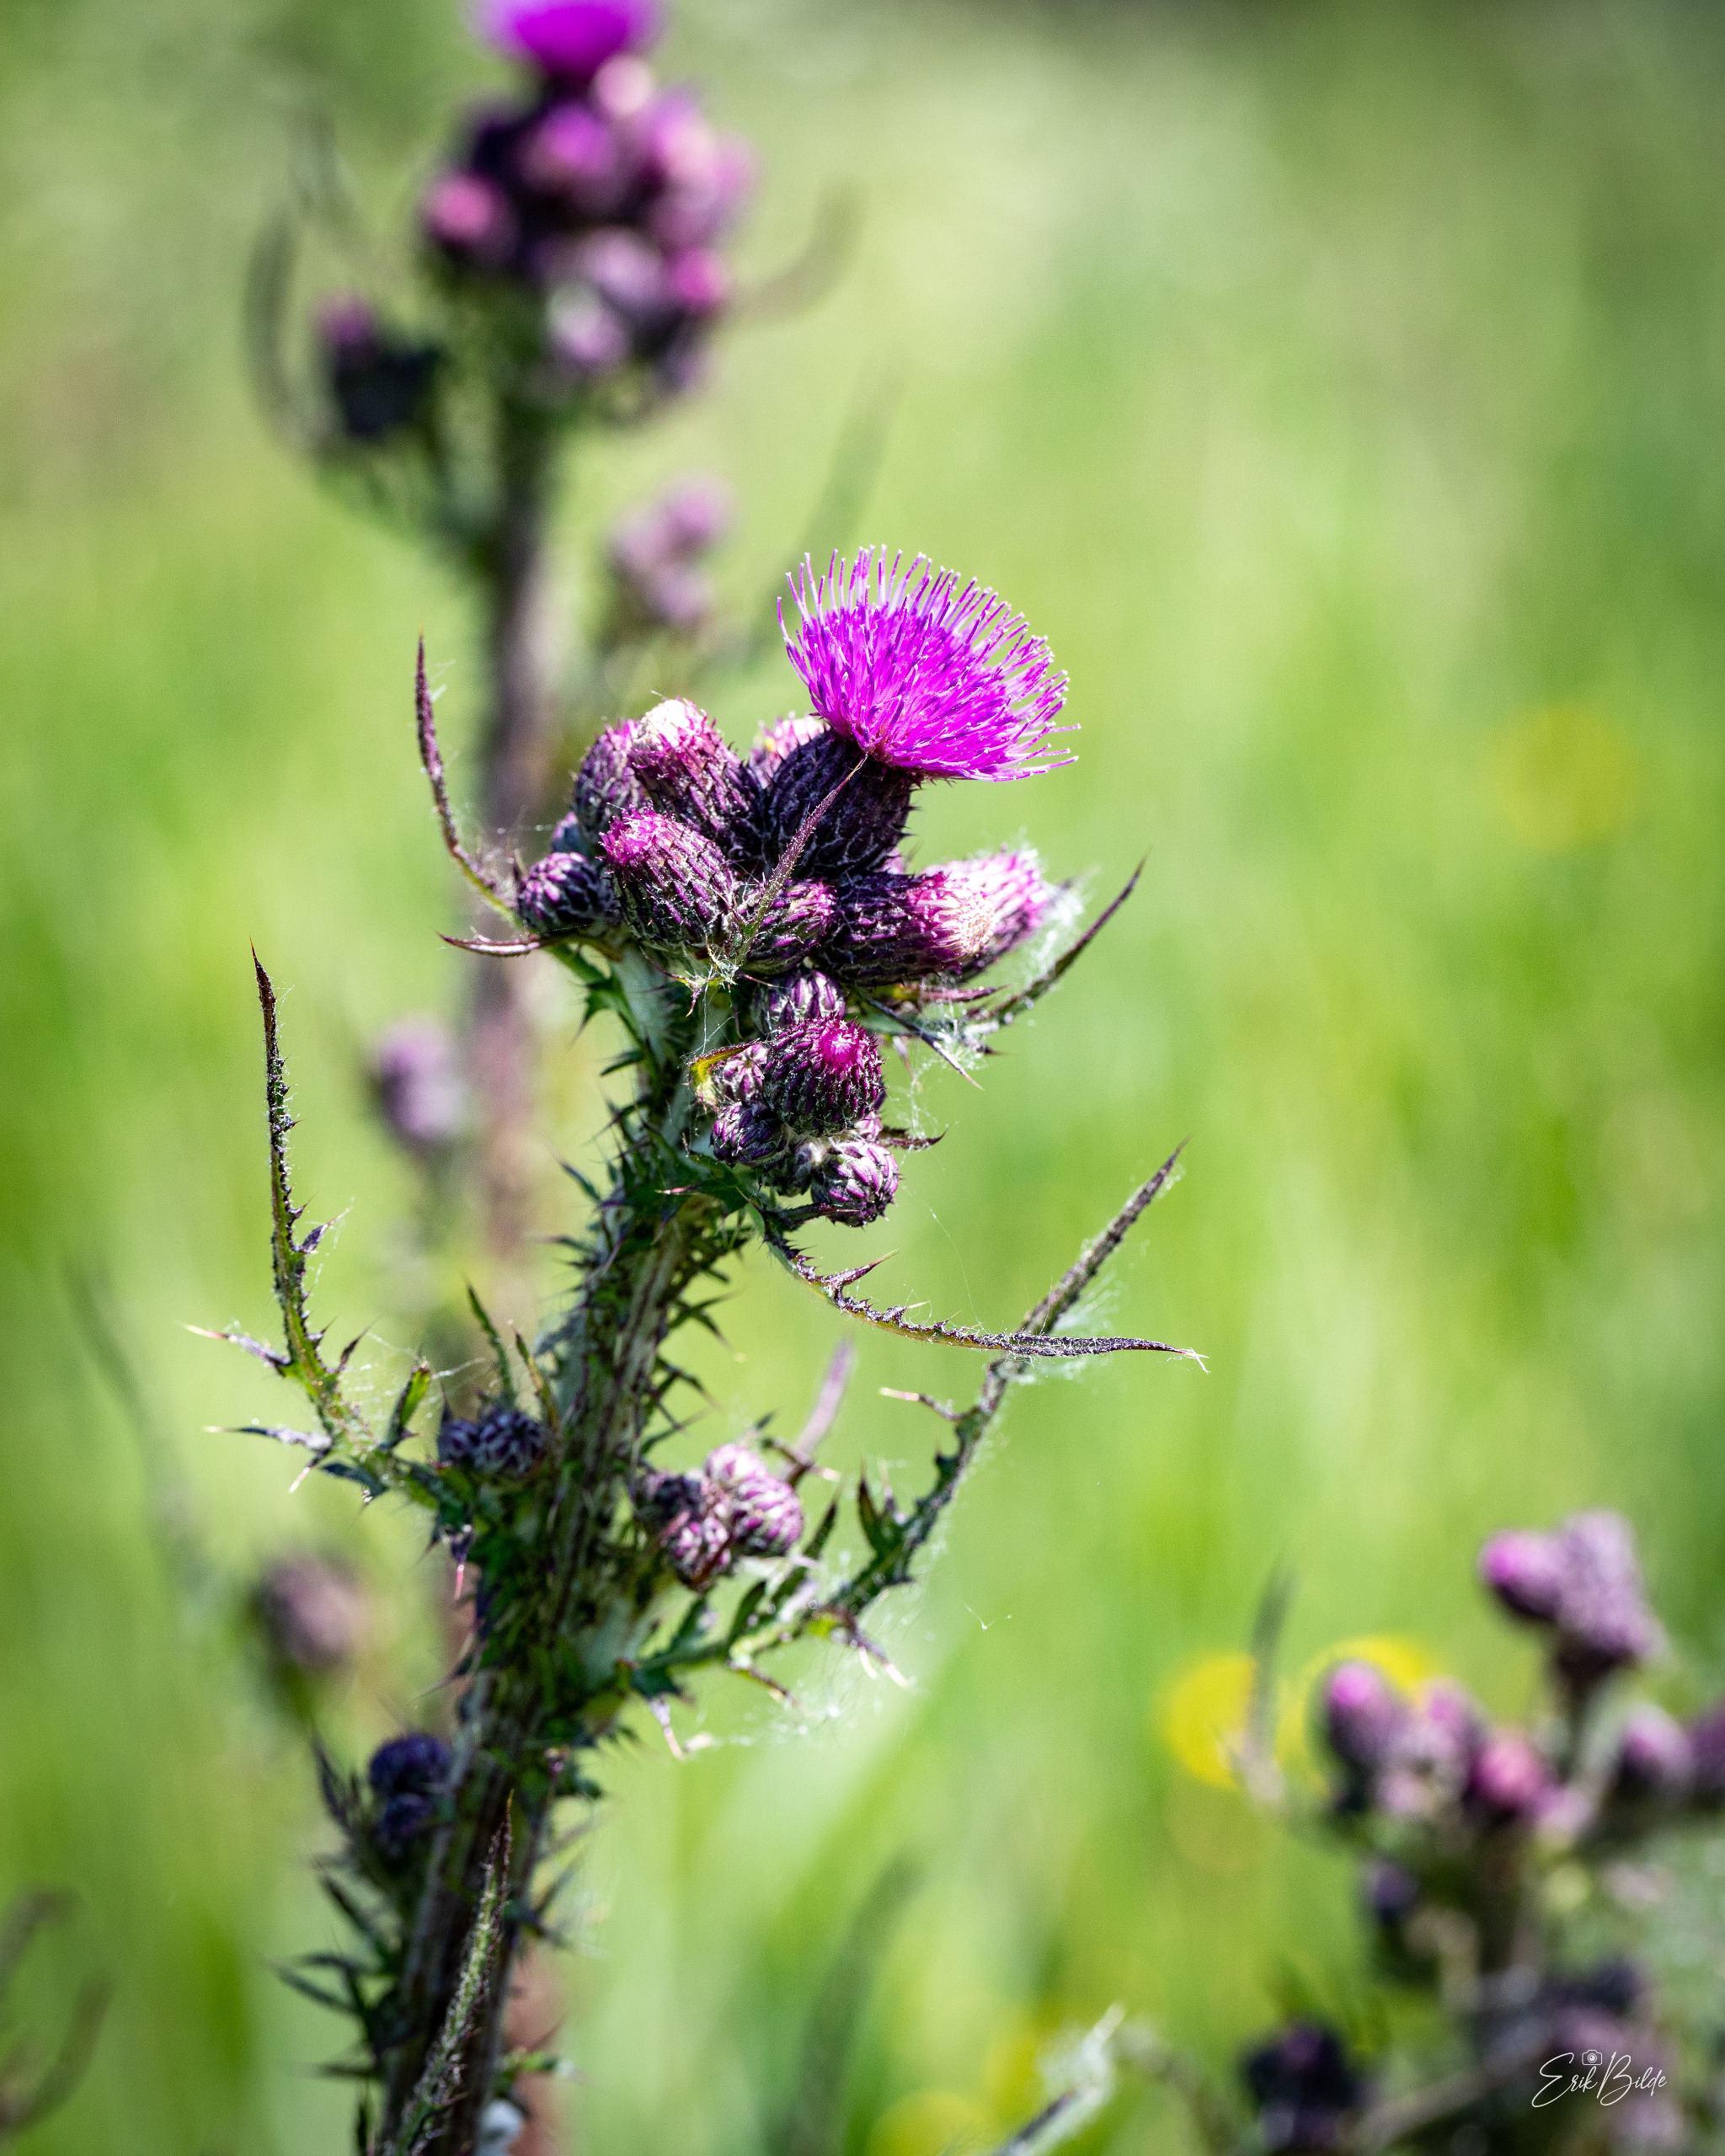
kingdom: Plantae
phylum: Tracheophyta
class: Magnoliopsida
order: Asterales
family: Asteraceae
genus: Cirsium
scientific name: Cirsium palustre
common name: Kær-tidsel
